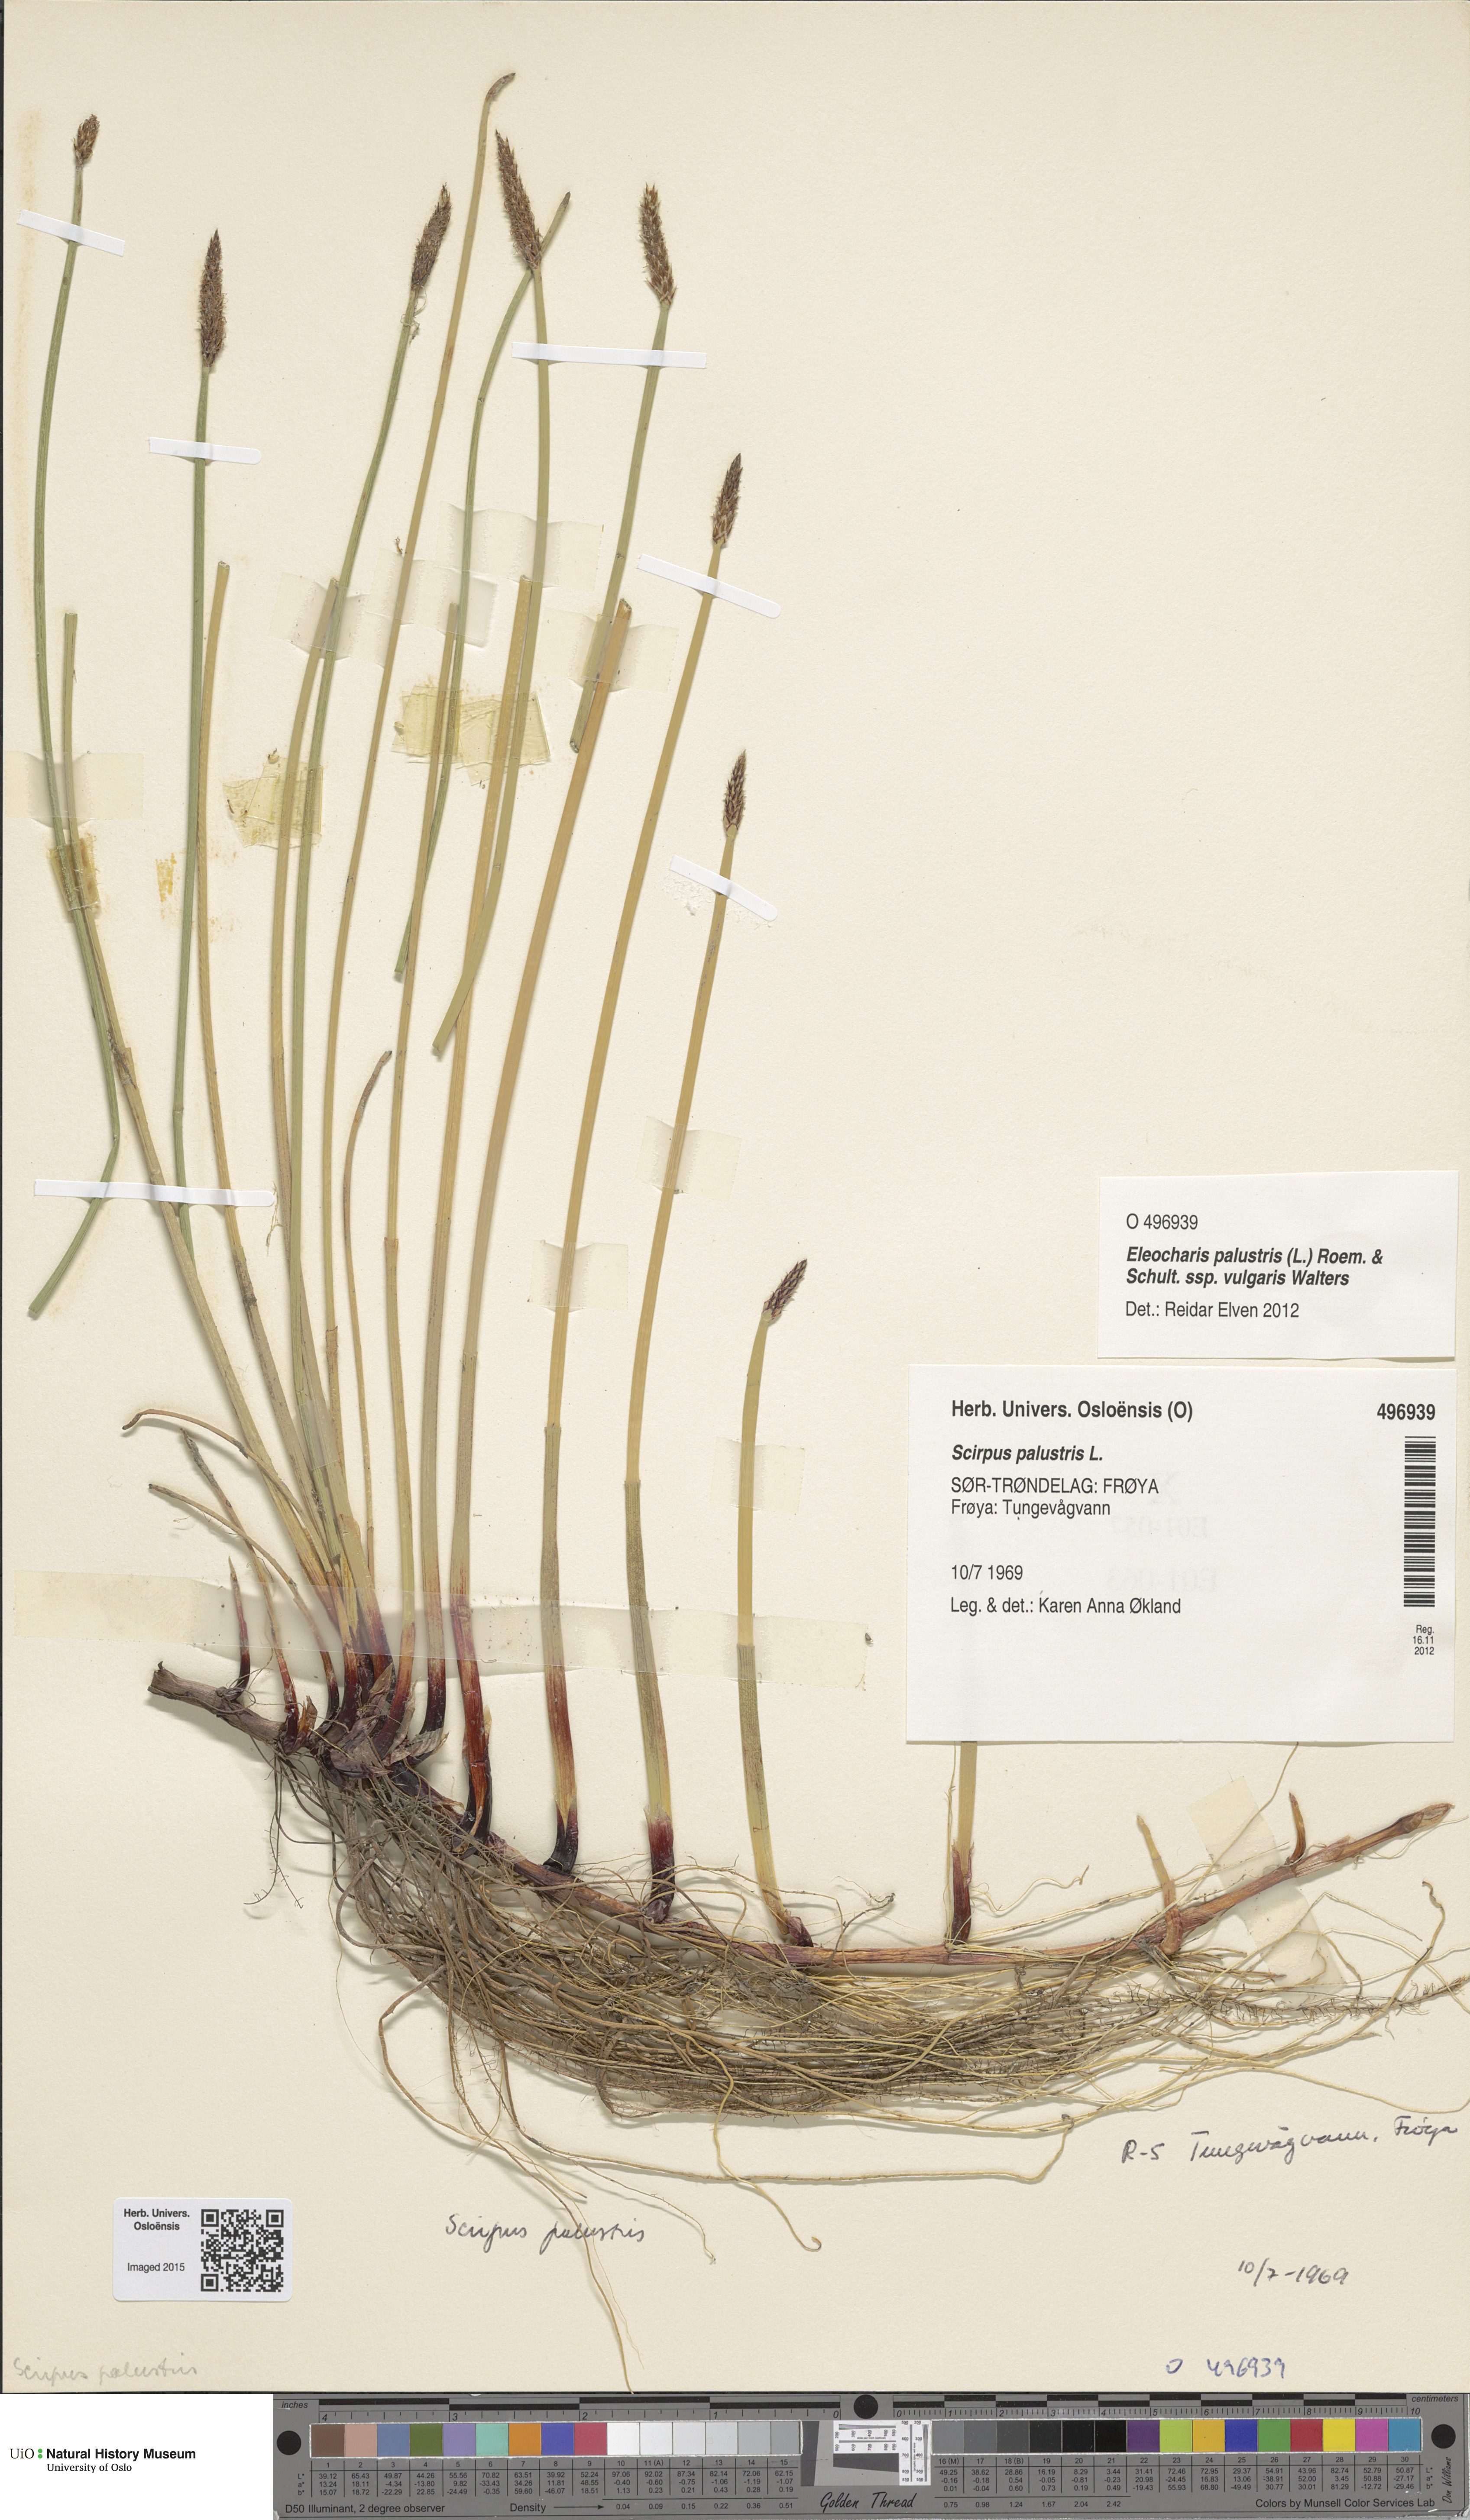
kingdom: Plantae
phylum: Tracheophyta
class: Liliopsida
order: Poales
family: Cyperaceae
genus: Eleocharis
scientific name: Eleocharis palustris
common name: Common spike-rush
